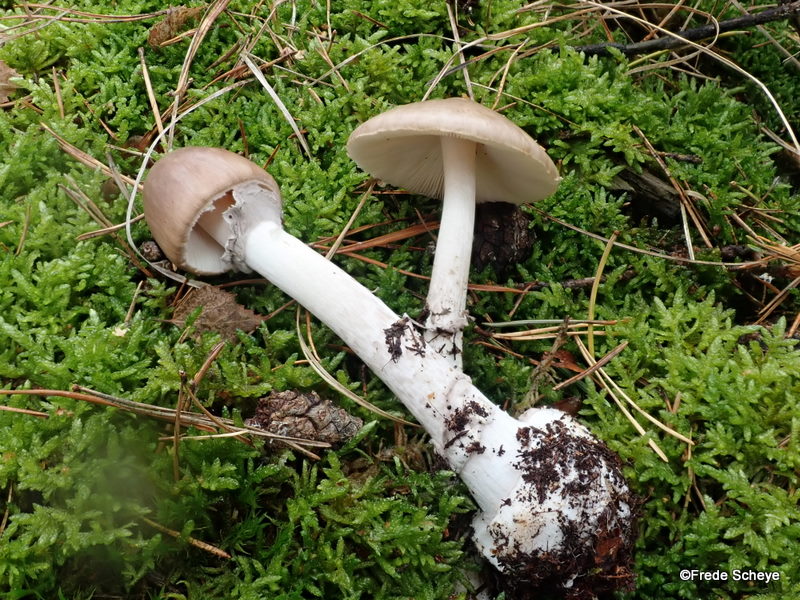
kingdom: Fungi
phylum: Basidiomycota
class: Agaricomycetes
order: Agaricales
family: Amanitaceae
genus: Amanita
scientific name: Amanita porphyria
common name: porfyr-fluesvamp
